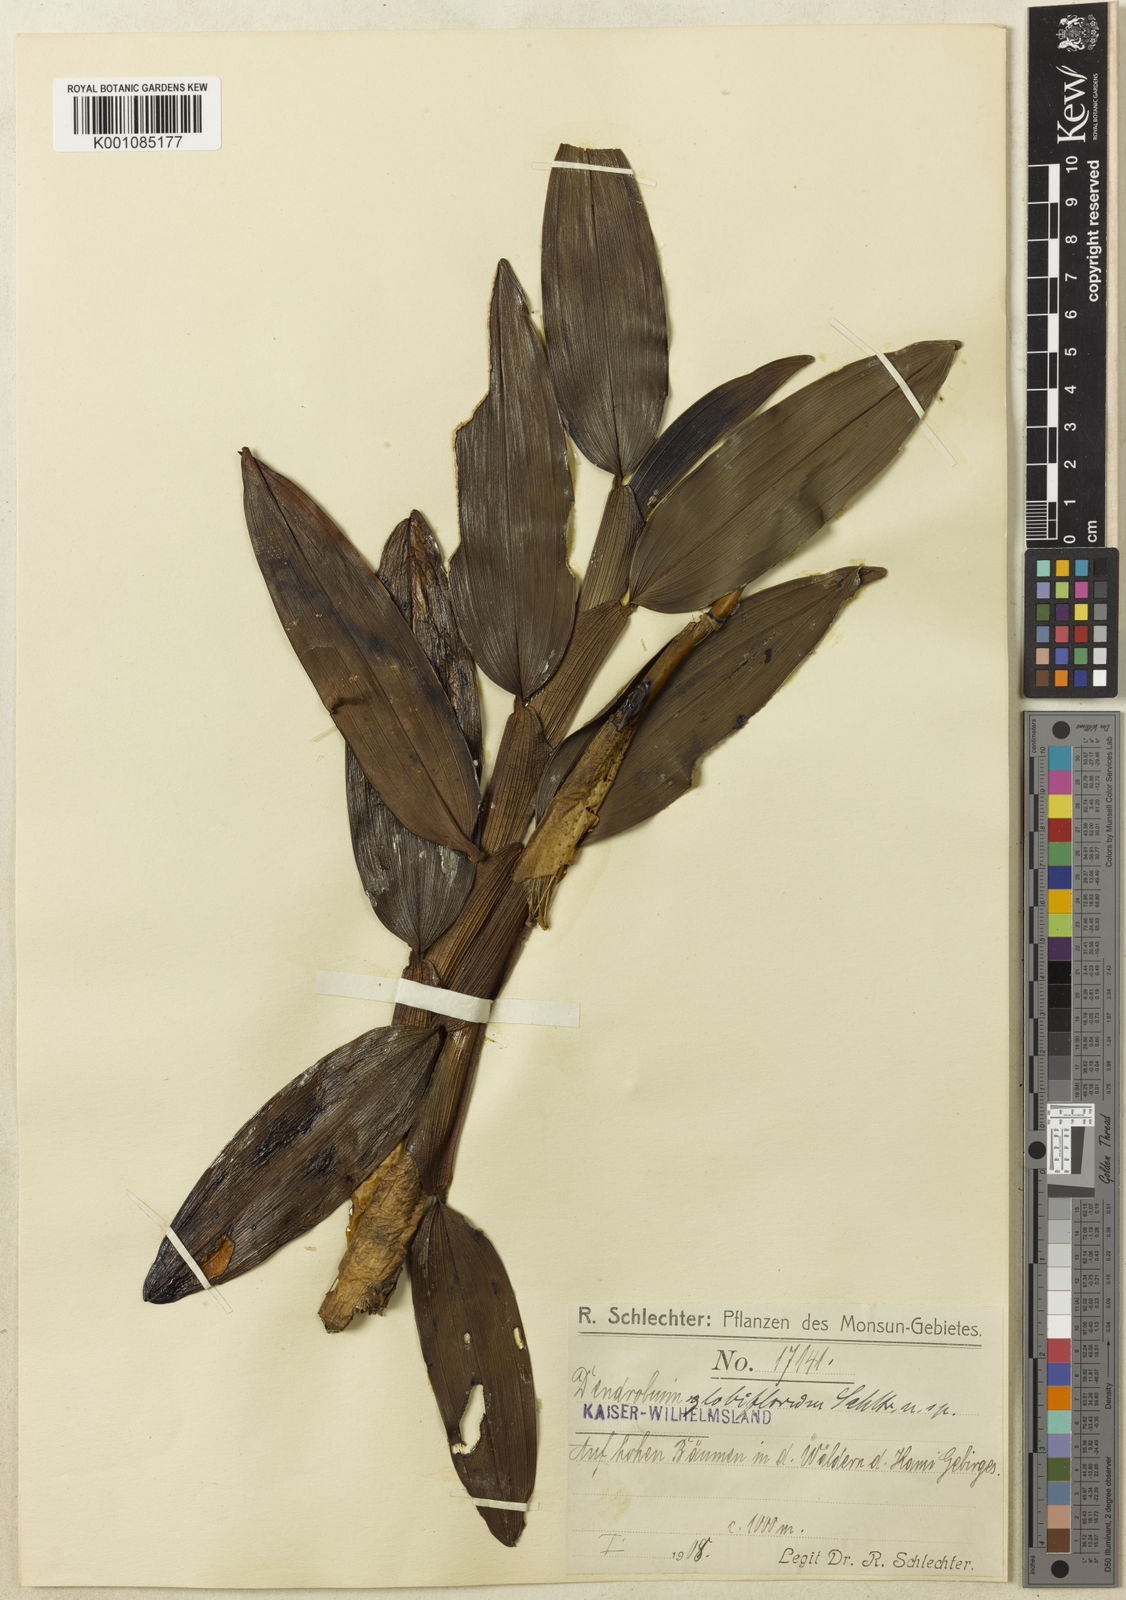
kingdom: Plantae
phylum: Tracheophyta
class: Liliopsida
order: Asparagales
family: Orchidaceae
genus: Dendrobium
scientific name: Dendrobium globiflorum
